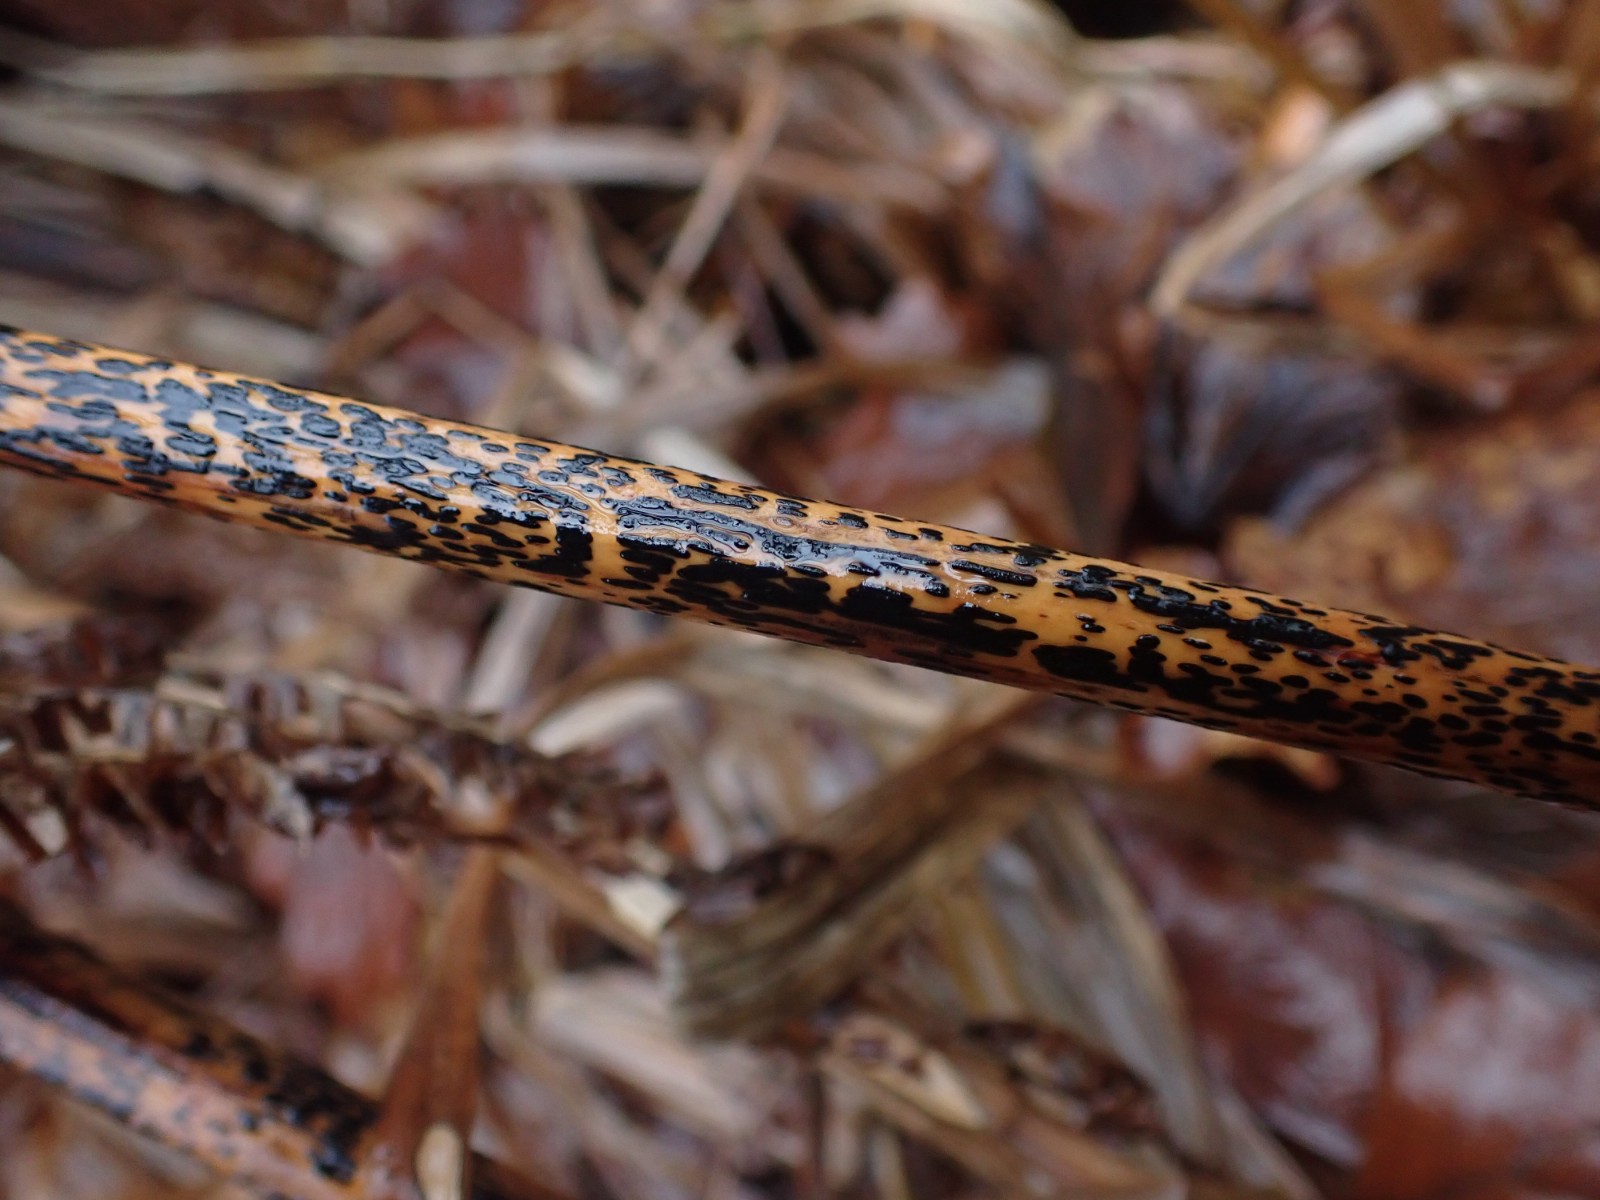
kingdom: Fungi
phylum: Ascomycota
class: Dothideomycetes
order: Pleosporales
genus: Rhopographus
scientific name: Rhopographus filicinus
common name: Bracken map
